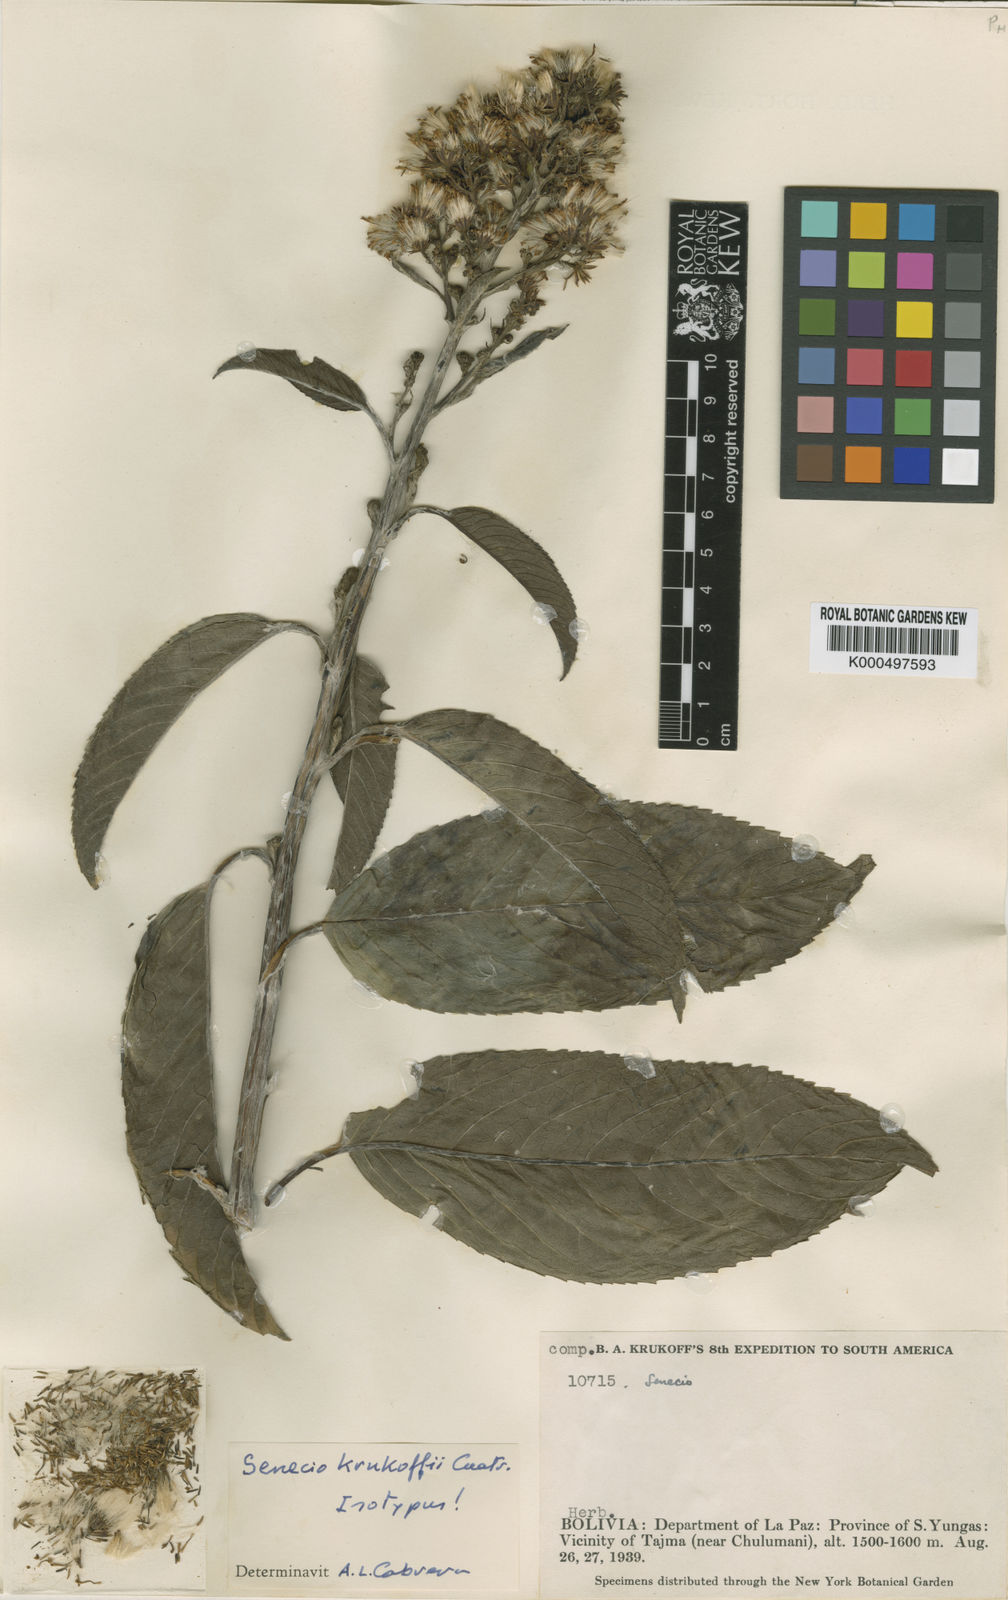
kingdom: Plantae
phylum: Tracheophyta
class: Magnoliopsida
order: Asterales
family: Asteraceae
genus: Dendrophorbium
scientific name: Dendrophorbium krukoffii
